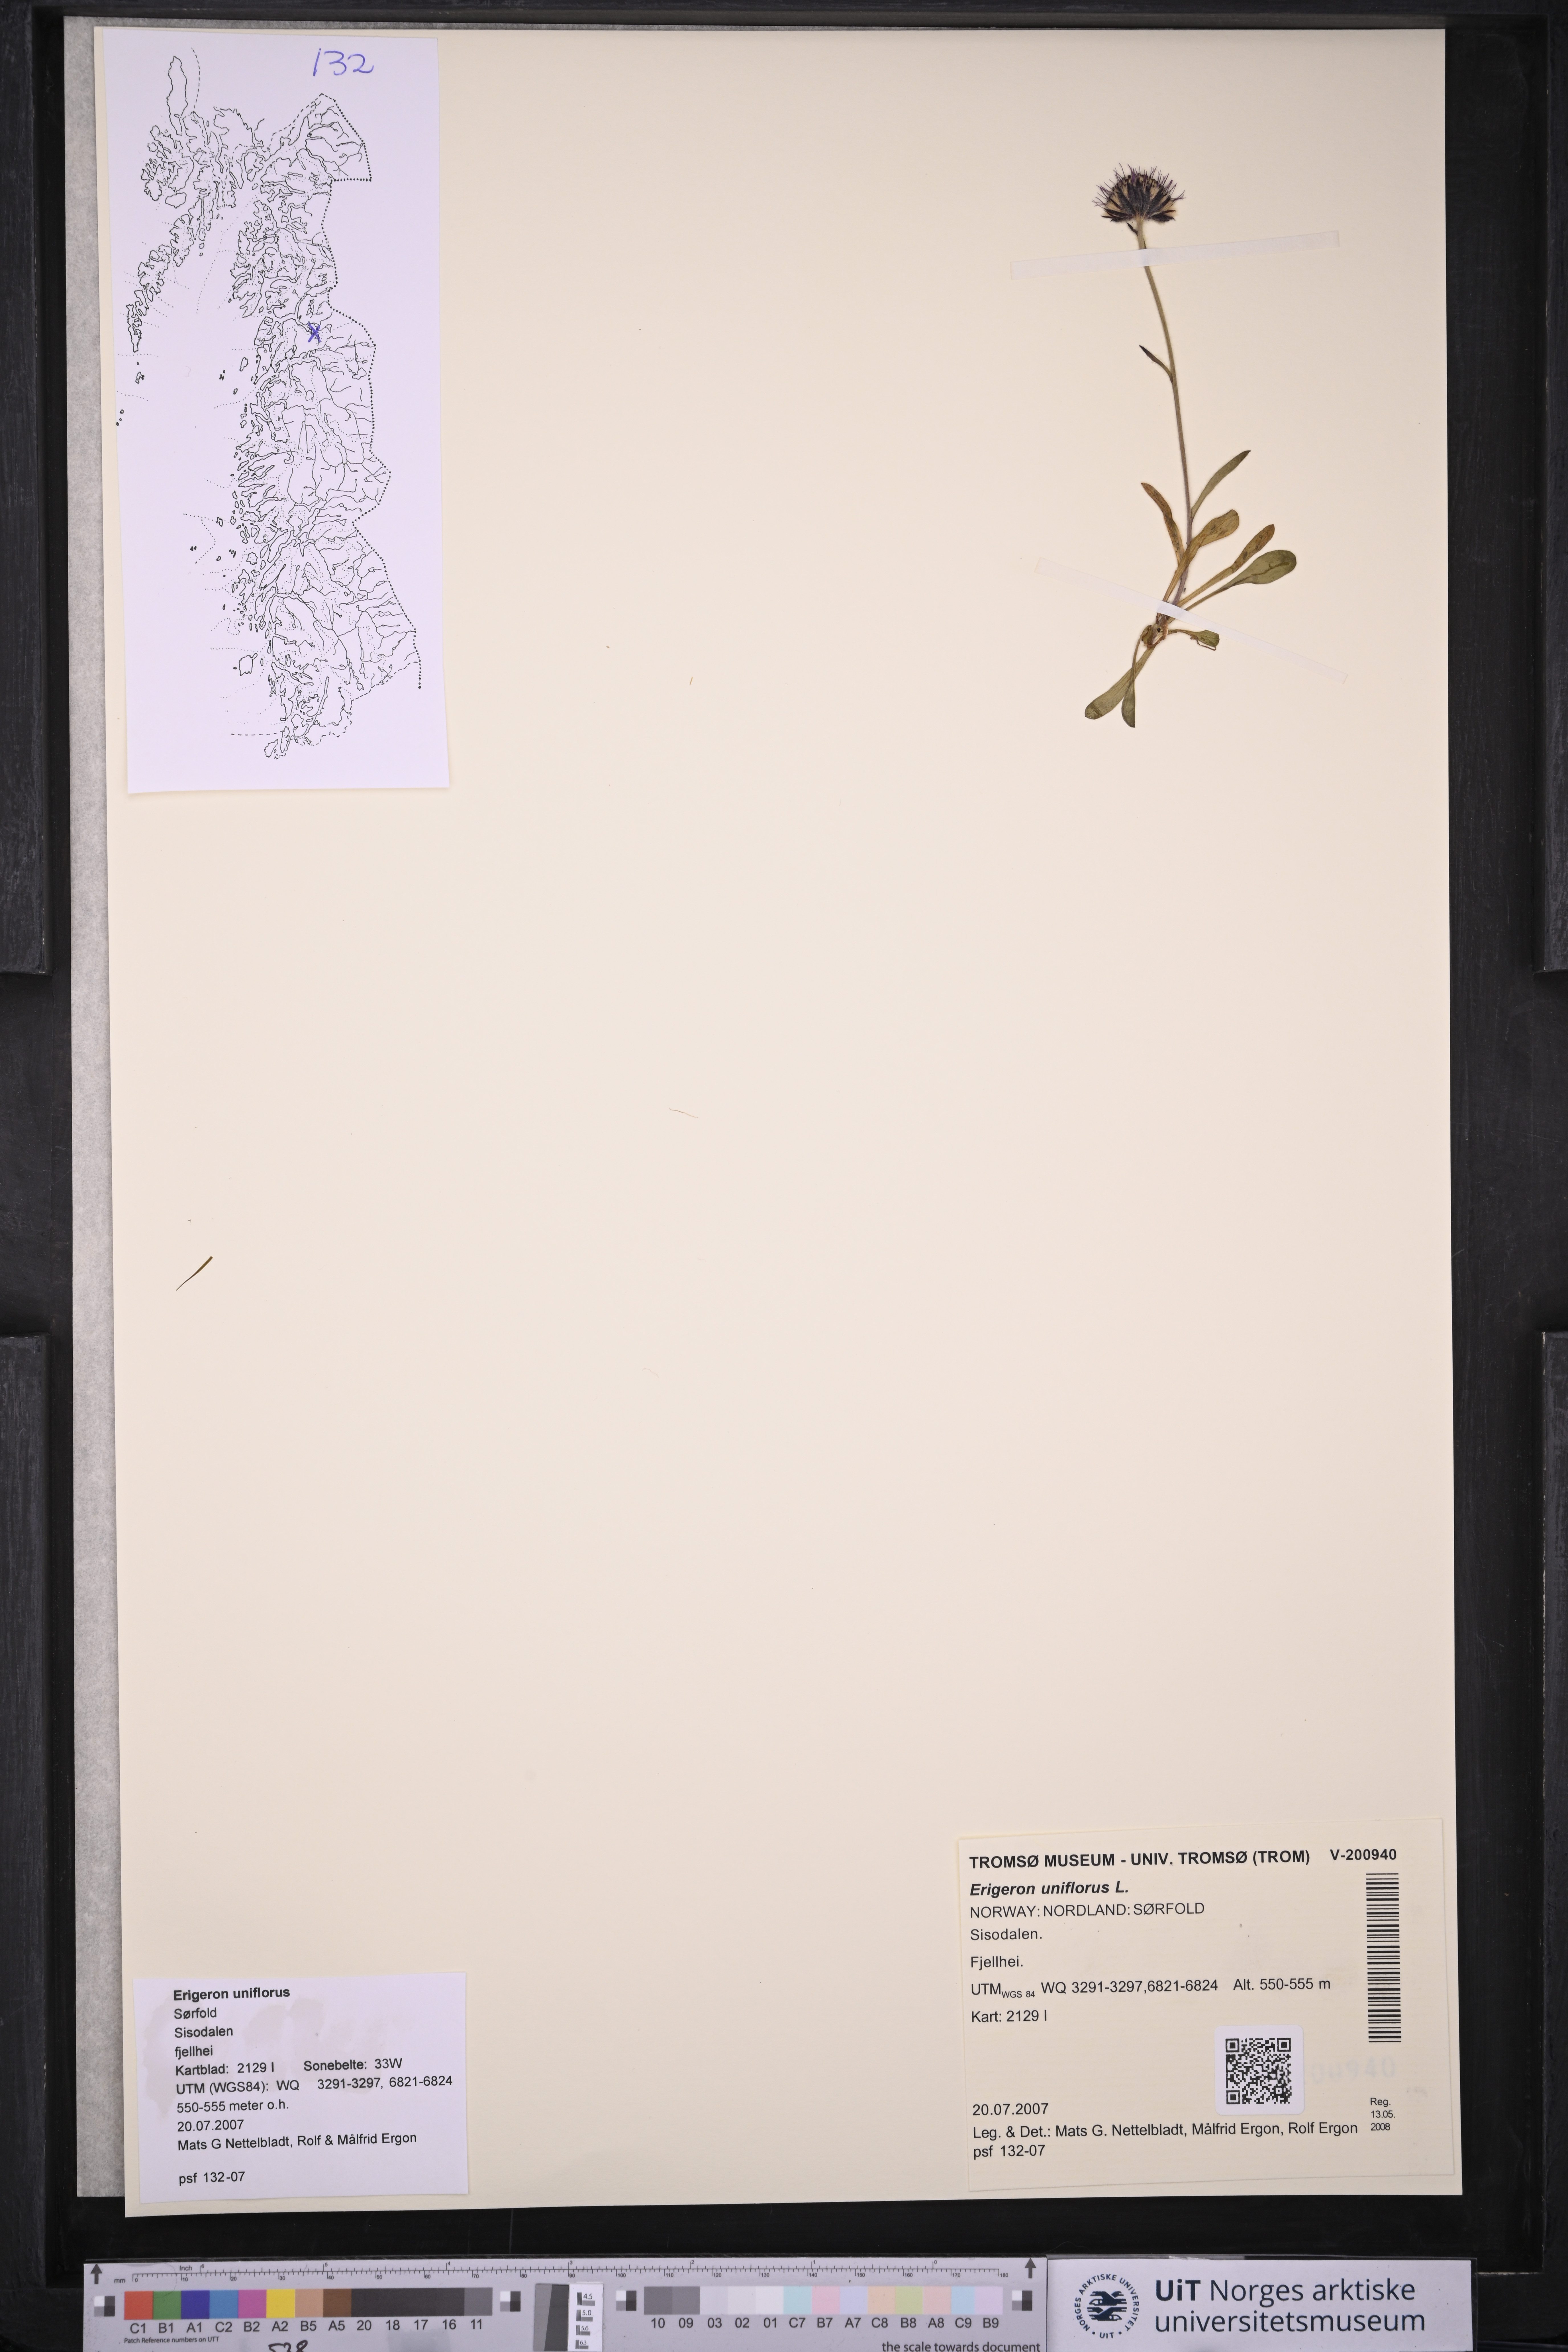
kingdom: Plantae
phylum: Tracheophyta
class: Magnoliopsida
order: Asterales
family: Asteraceae
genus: Erigeron
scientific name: Erigeron uniflorus
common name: Northern daisy
